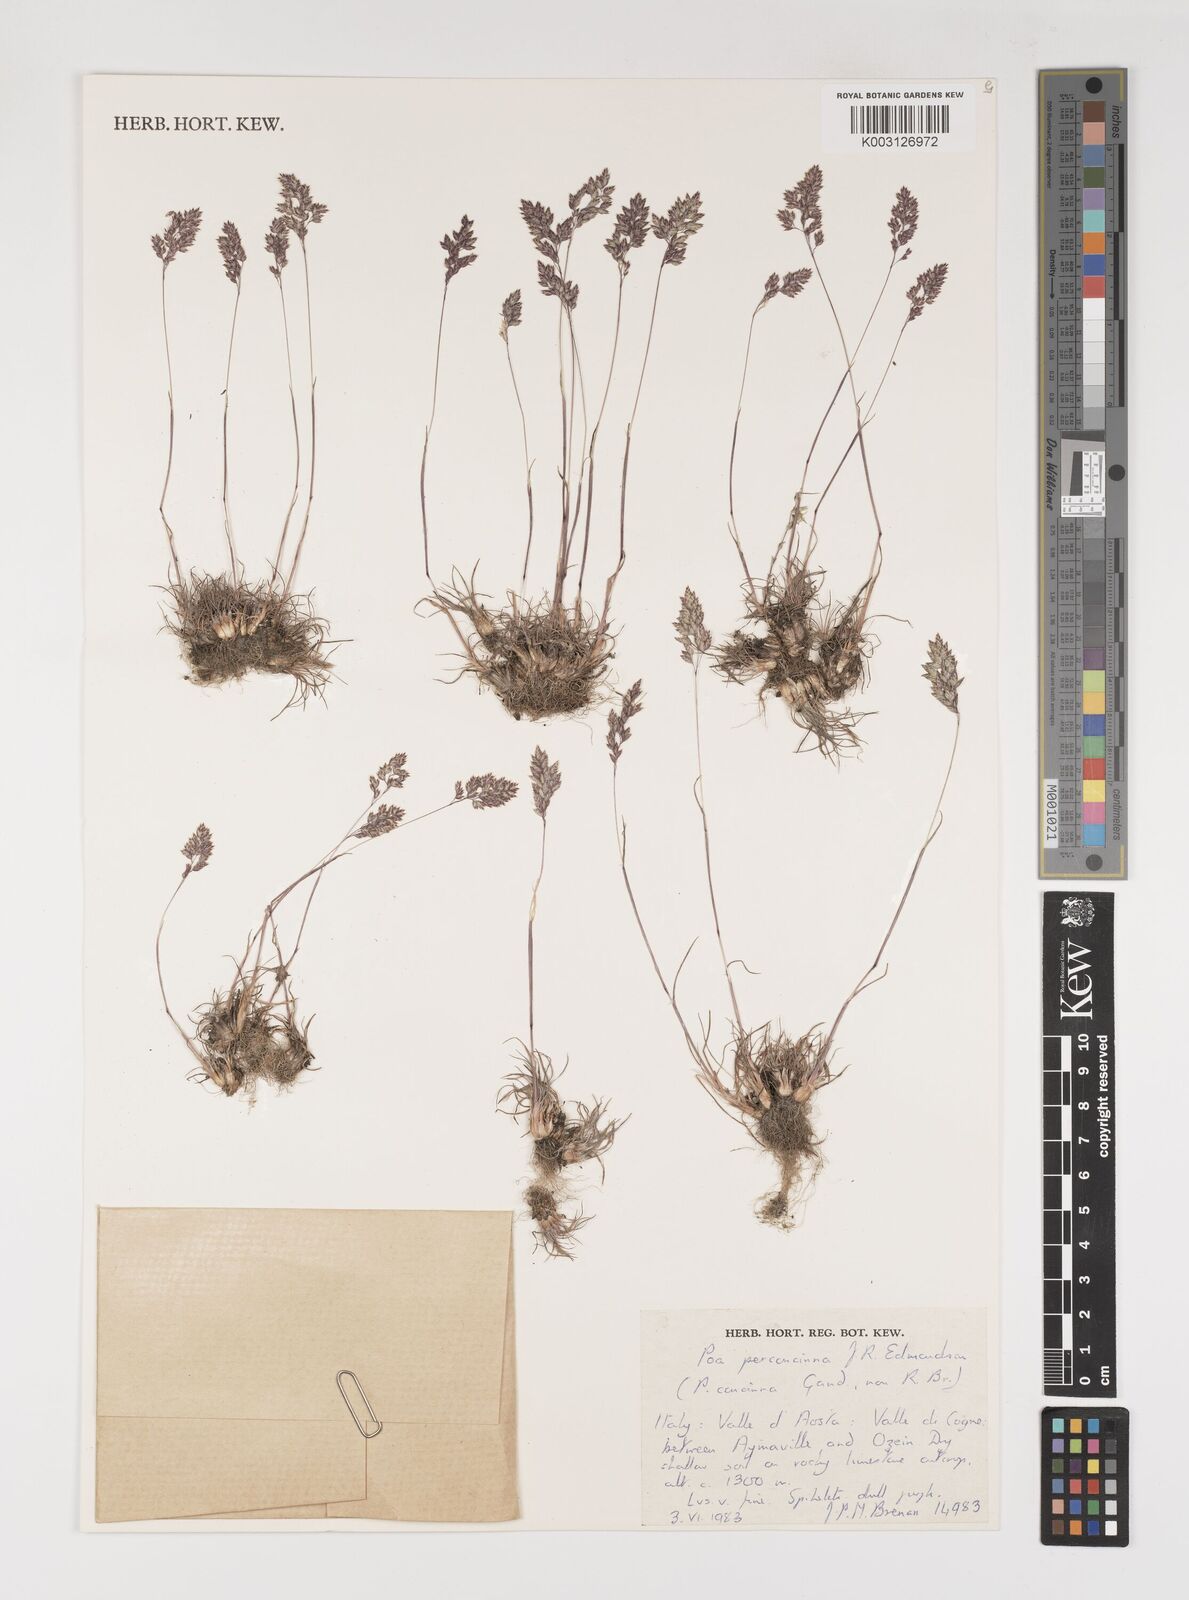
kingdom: Plantae
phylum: Tracheophyta
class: Liliopsida
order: Poales
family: Poaceae
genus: Poa
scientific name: Poa perconcinna
